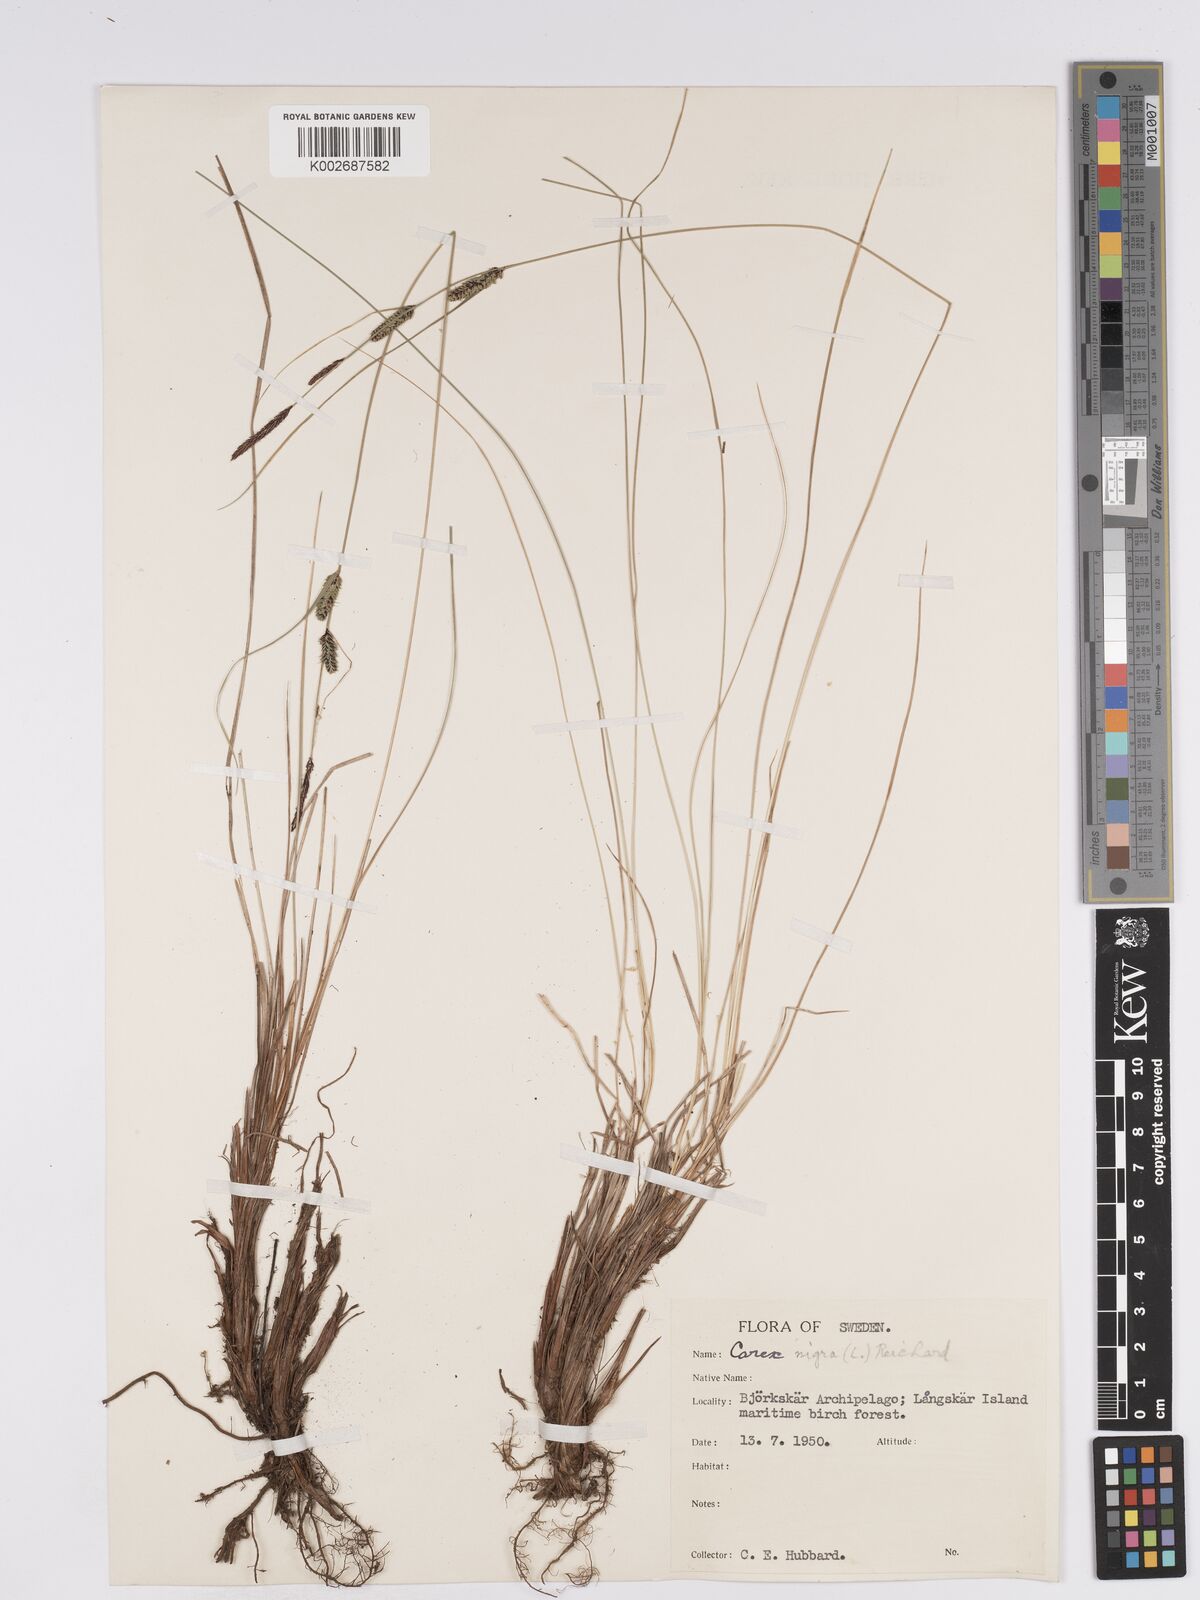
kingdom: Plantae
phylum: Tracheophyta
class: Liliopsida
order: Poales
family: Cyperaceae
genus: Carex
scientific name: Carex nigra
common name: Common sedge
